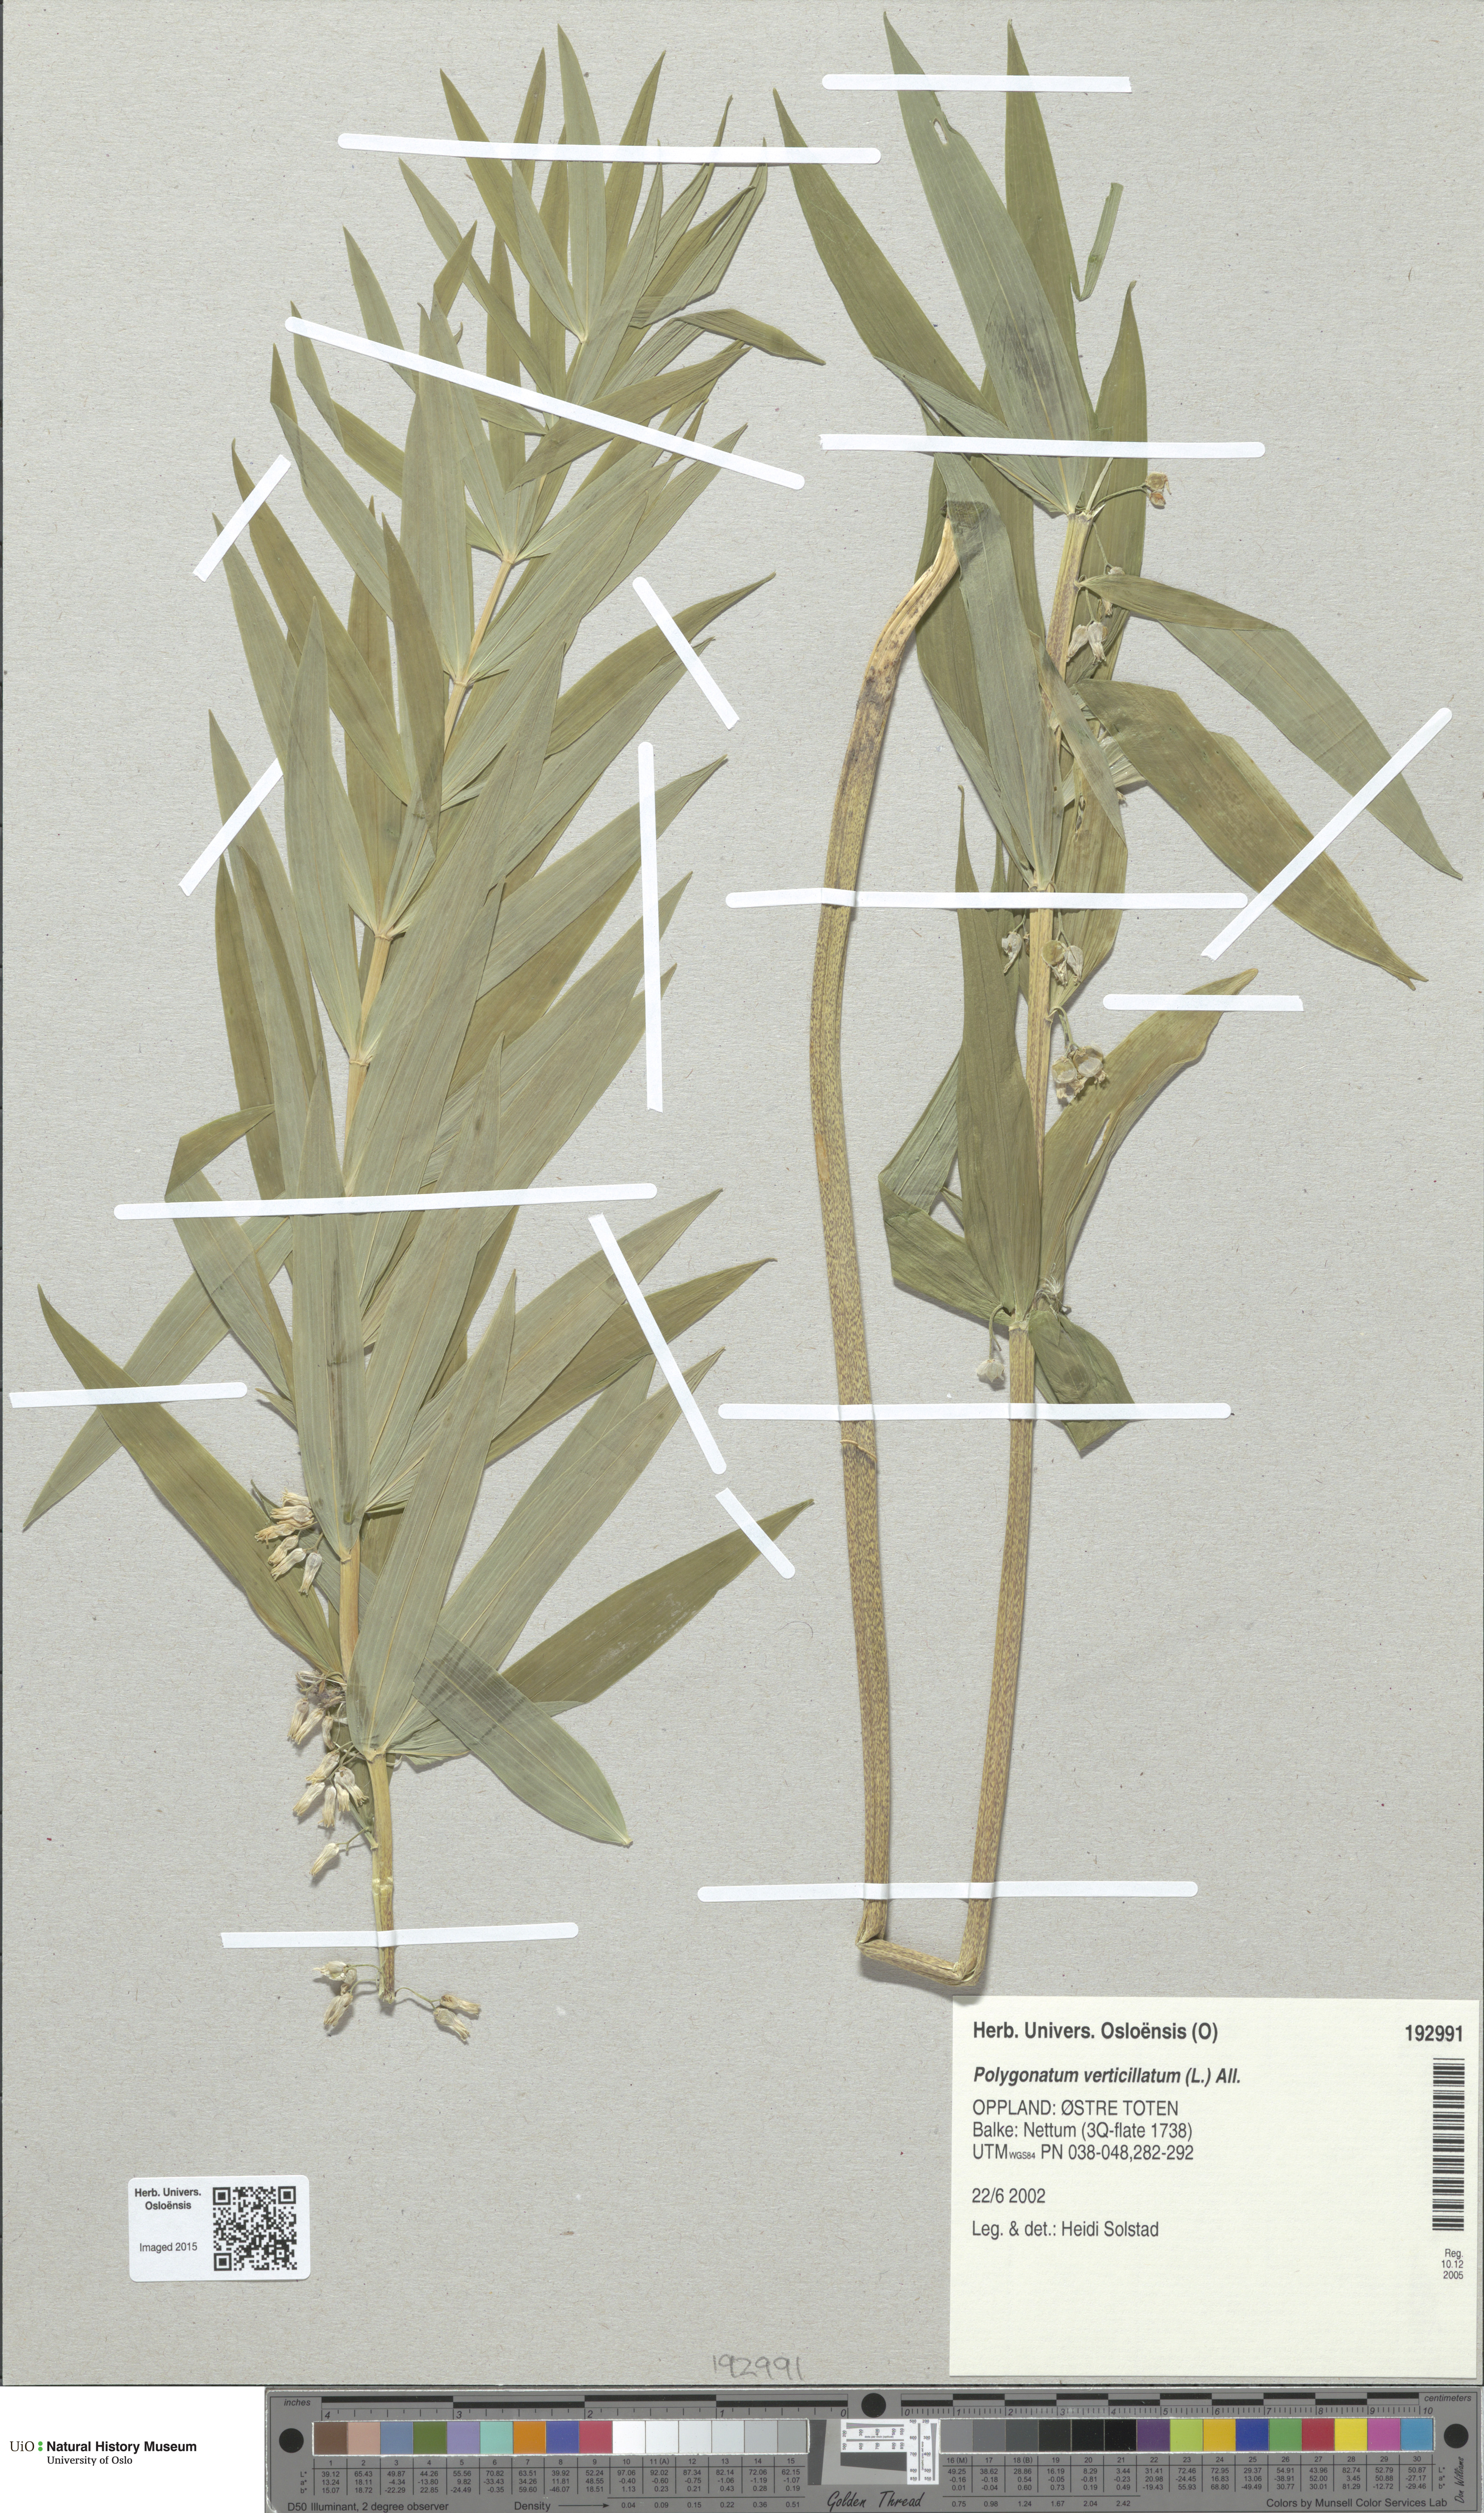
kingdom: Plantae
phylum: Tracheophyta
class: Liliopsida
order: Asparagales
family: Asparagaceae
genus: Polygonatum
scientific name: Polygonatum verticillatum
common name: Whorled solomon's-seal
